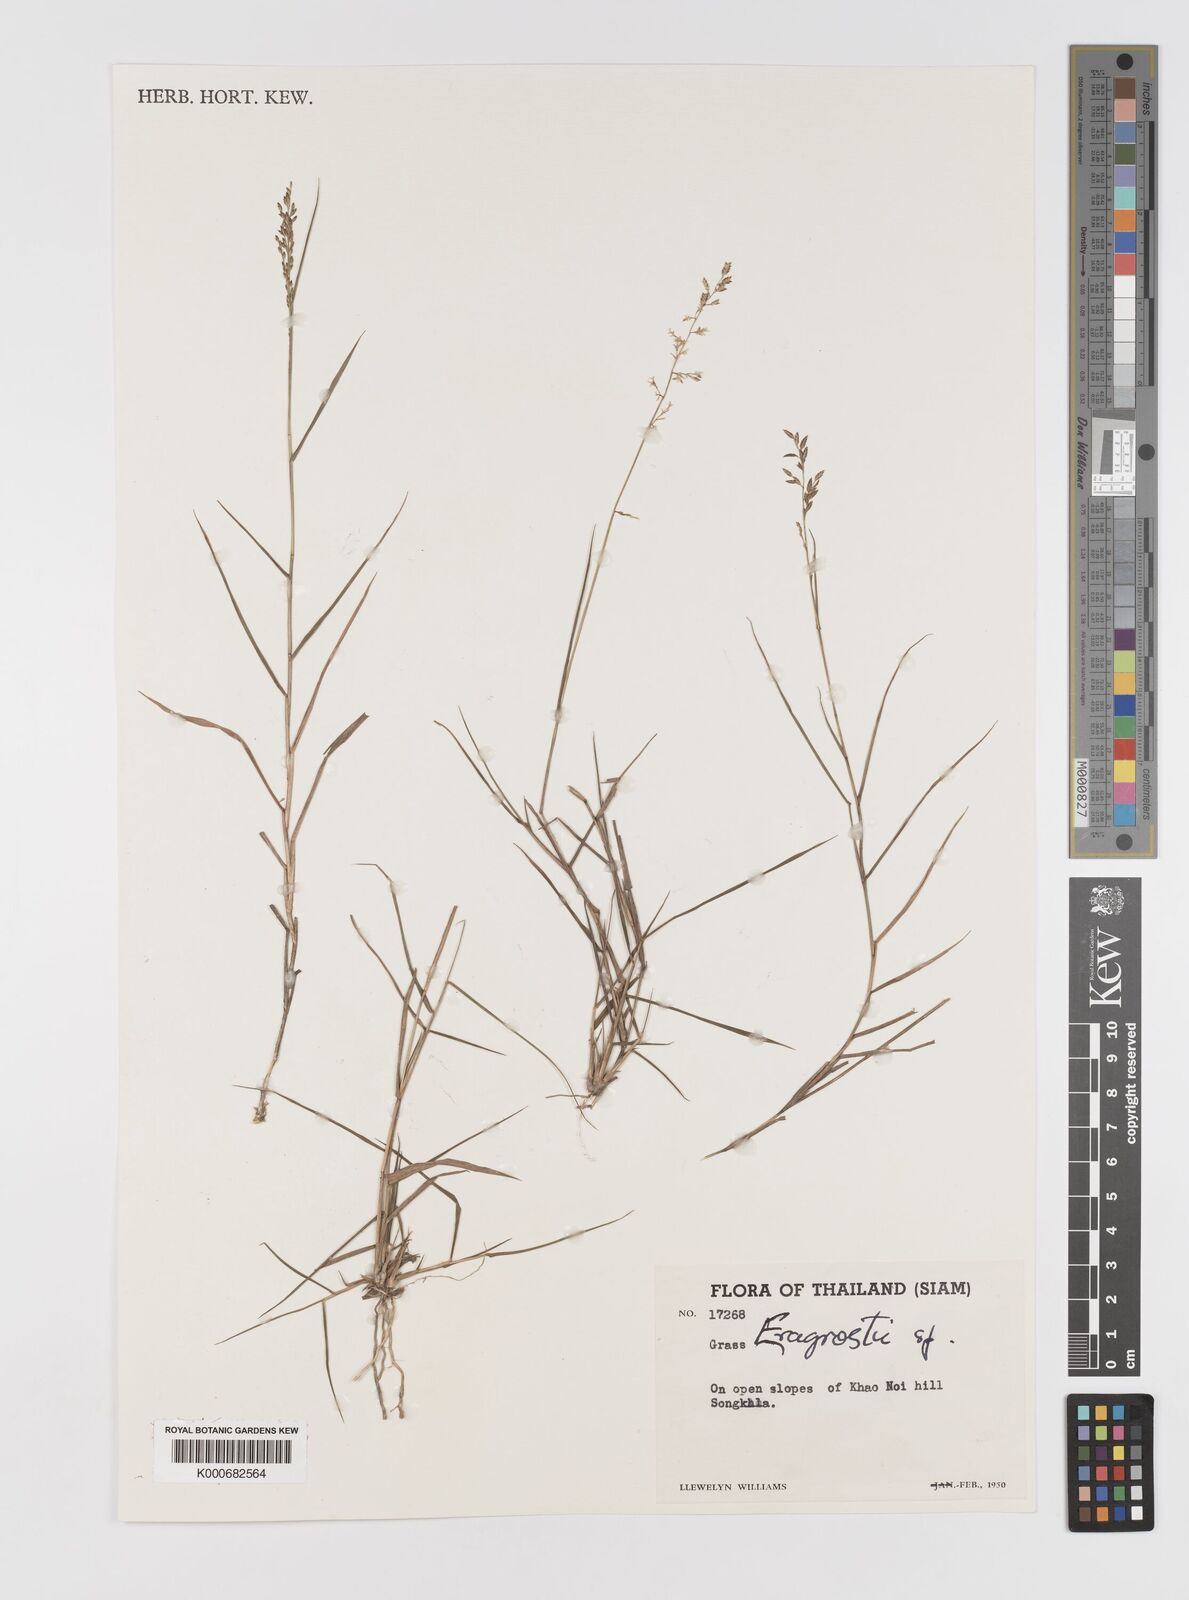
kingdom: Plantae
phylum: Tracheophyta
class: Liliopsida
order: Poales
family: Poaceae
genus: Eragrostis
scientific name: Eragrostis
